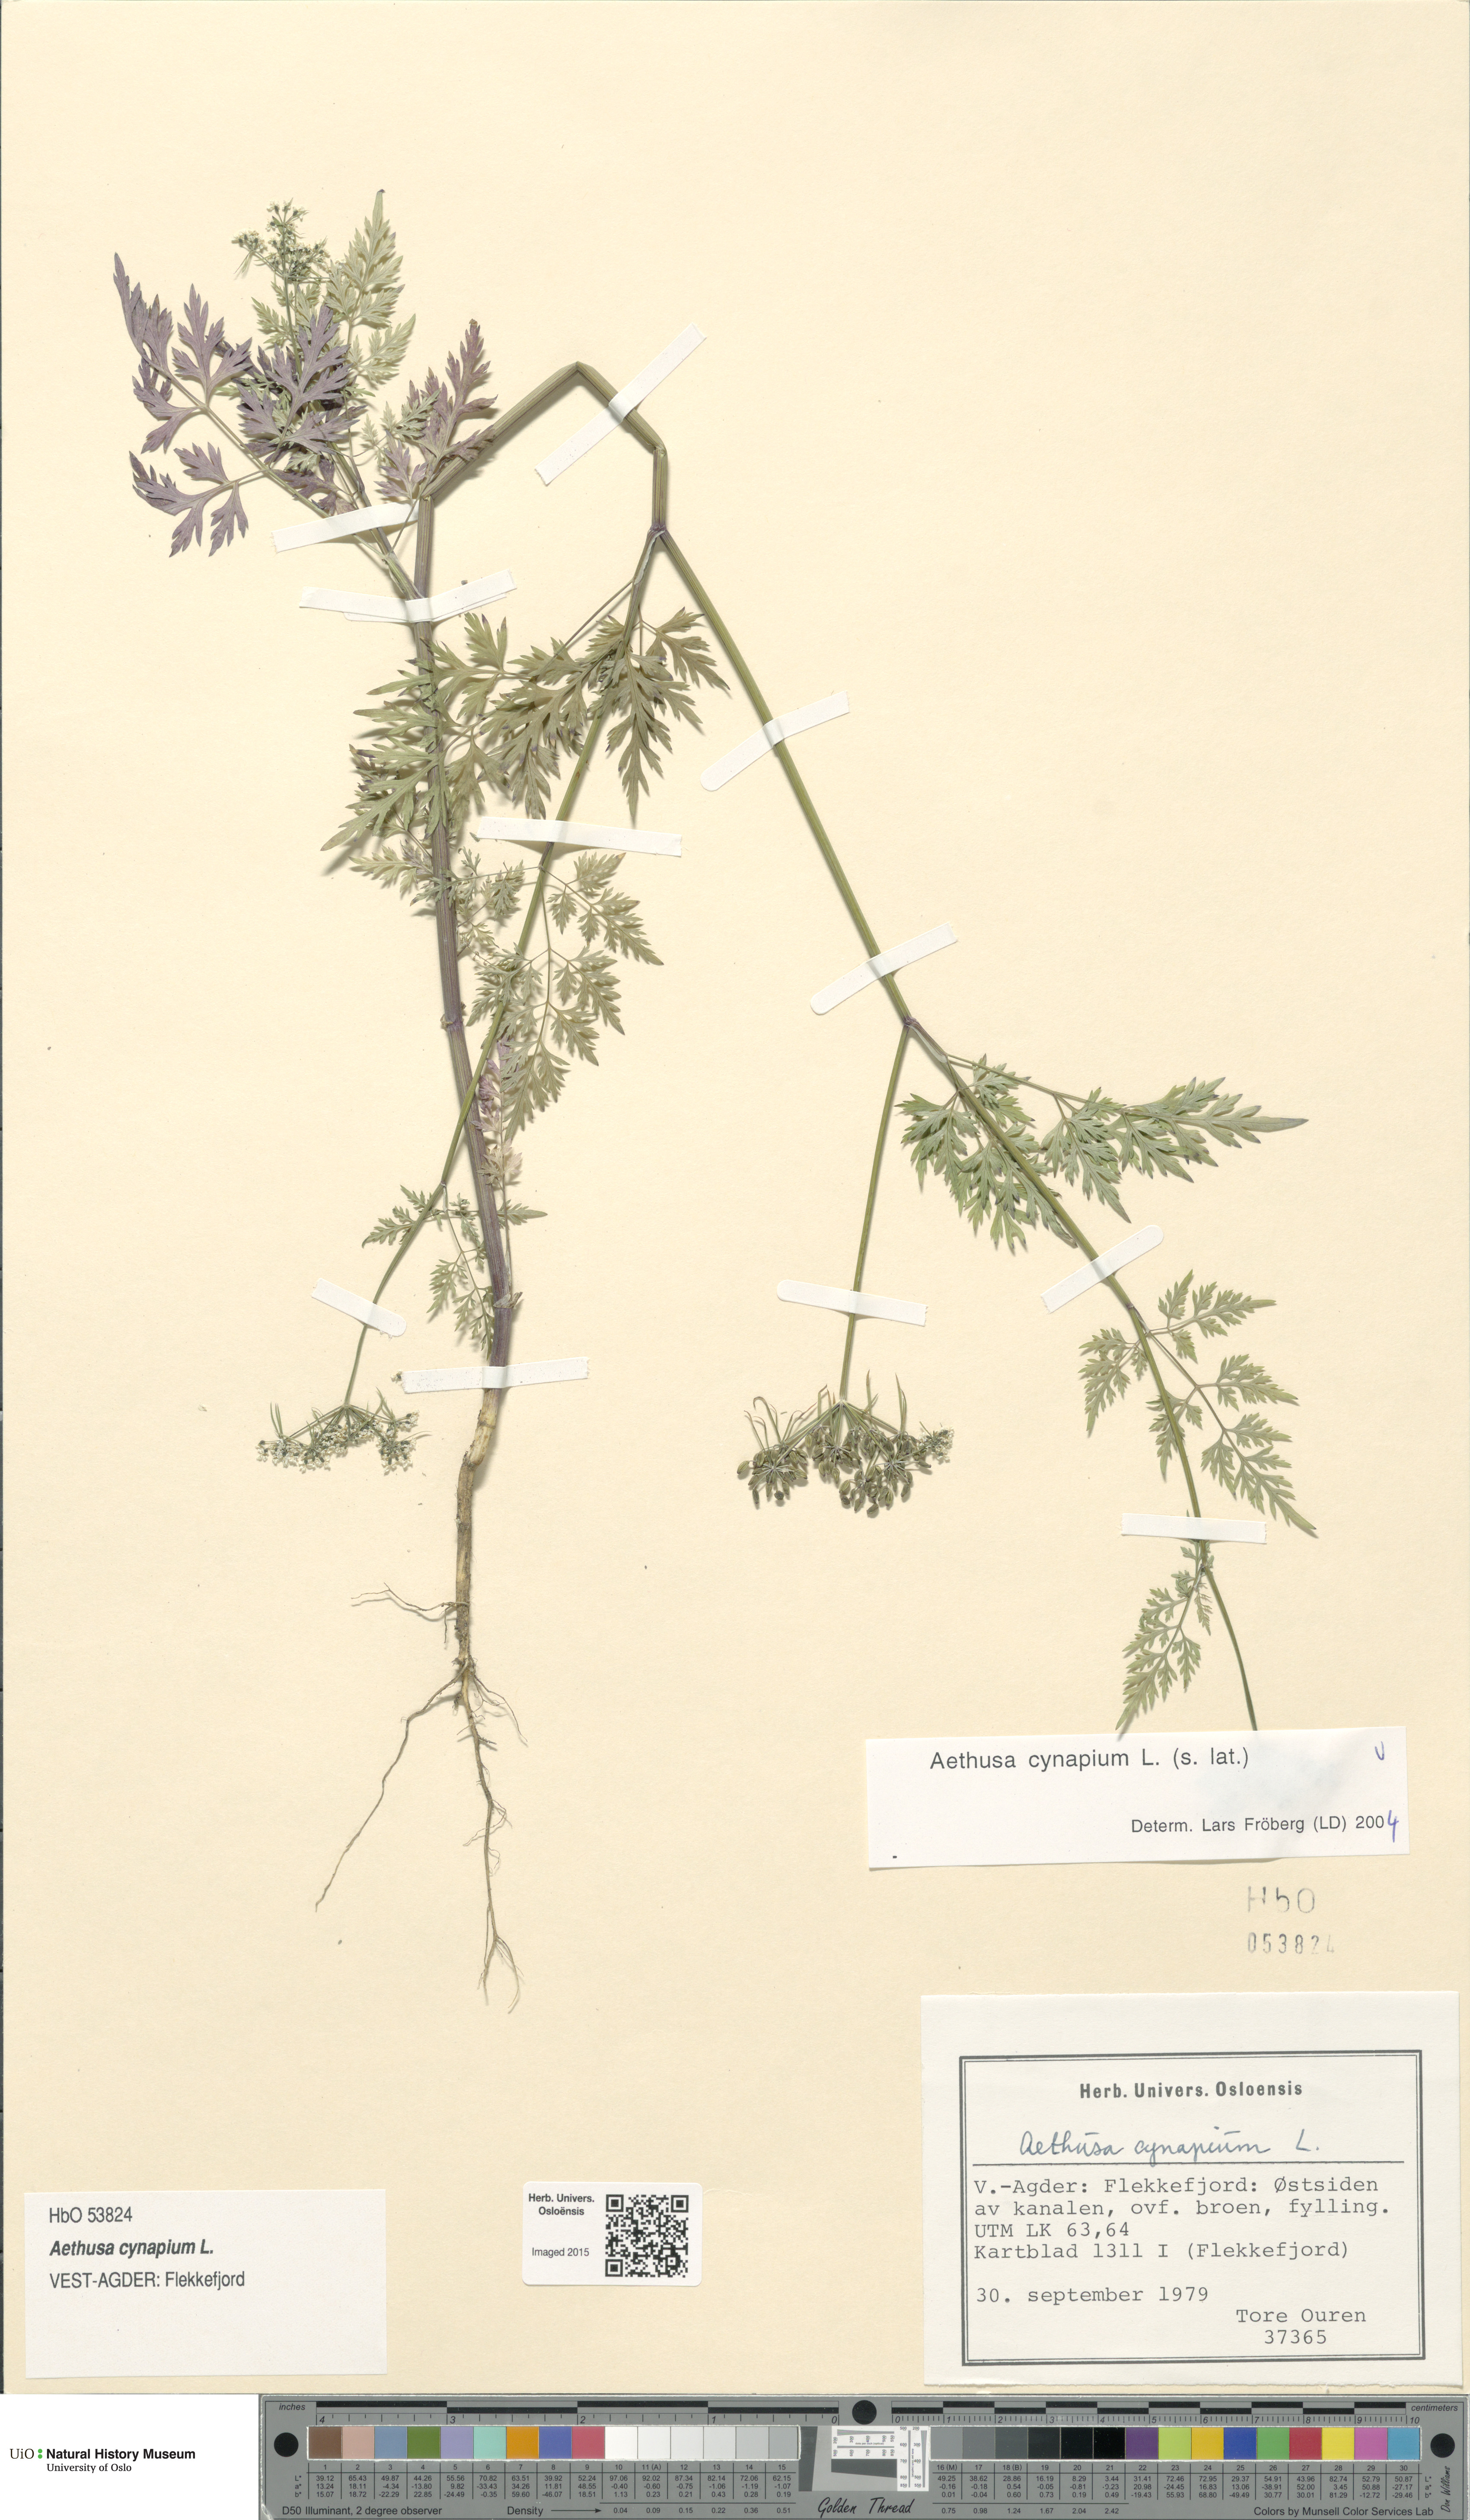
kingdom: Plantae
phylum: Tracheophyta
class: Magnoliopsida
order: Apiales
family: Apiaceae
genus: Aethusa
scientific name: Aethusa cynapium
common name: Fool's parsley
